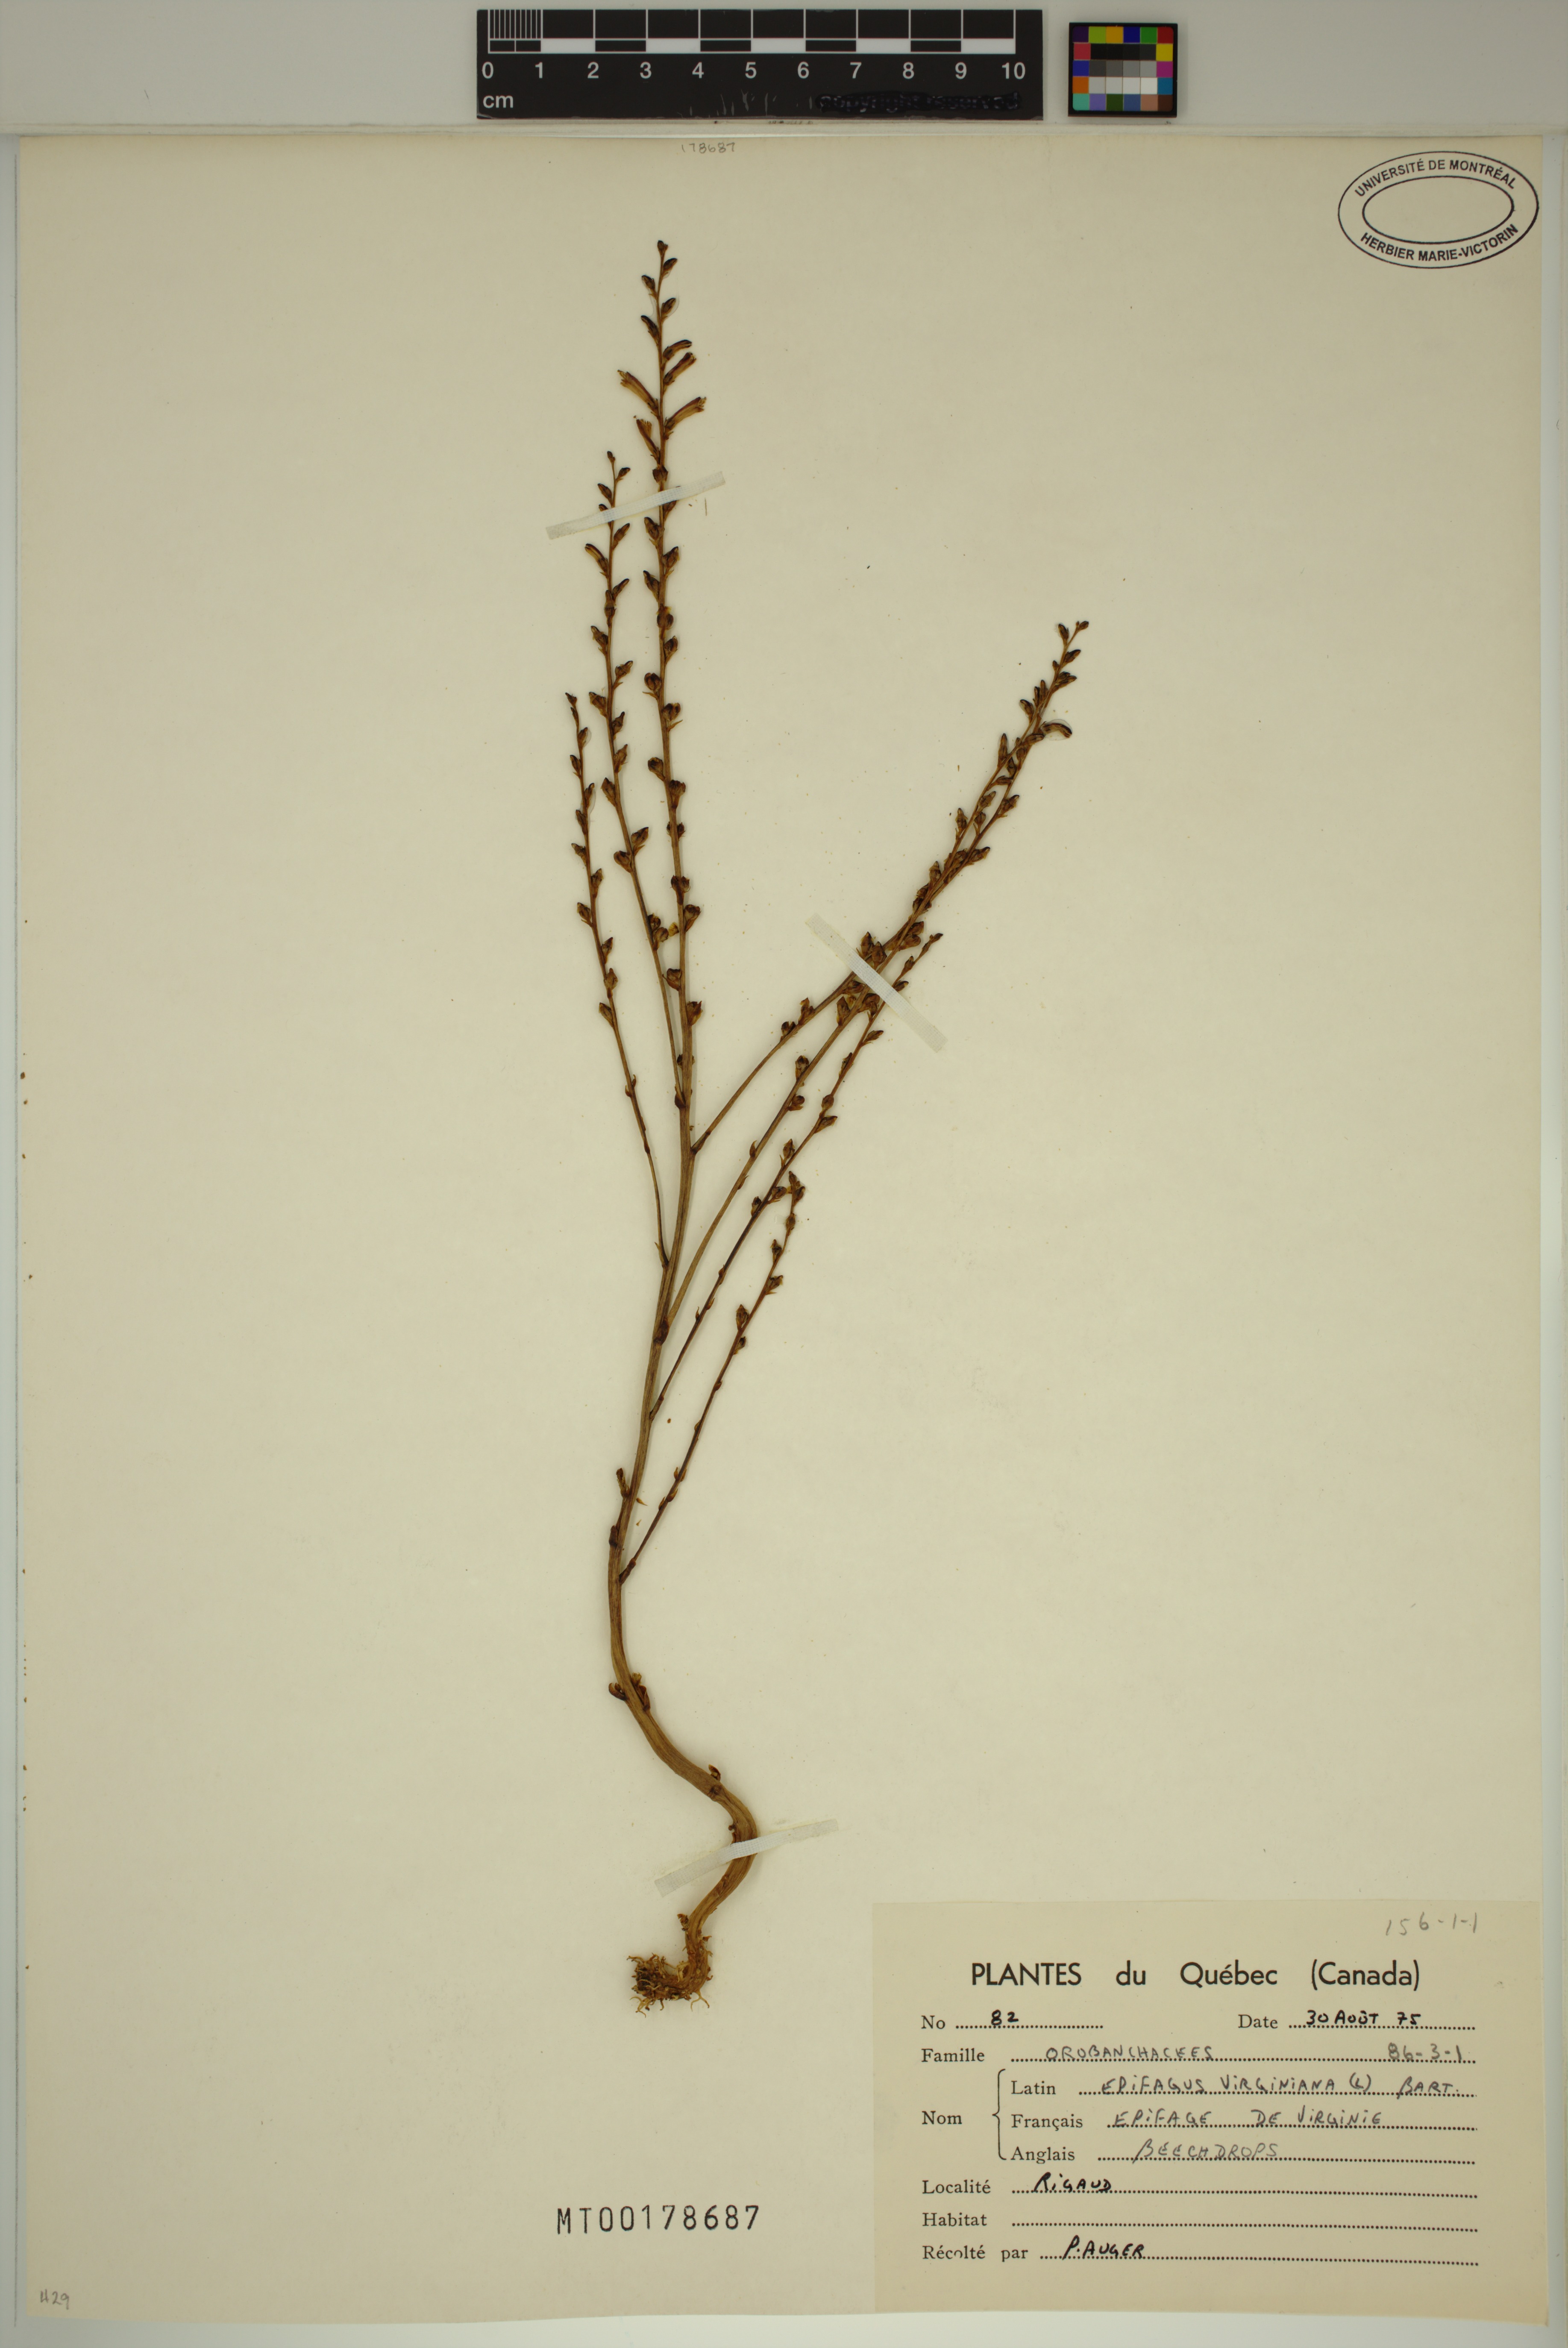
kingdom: Plantae
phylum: Tracheophyta
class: Magnoliopsida
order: Lamiales
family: Orobanchaceae
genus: Epifagus
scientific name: Epifagus virginiana
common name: Beechdrops
